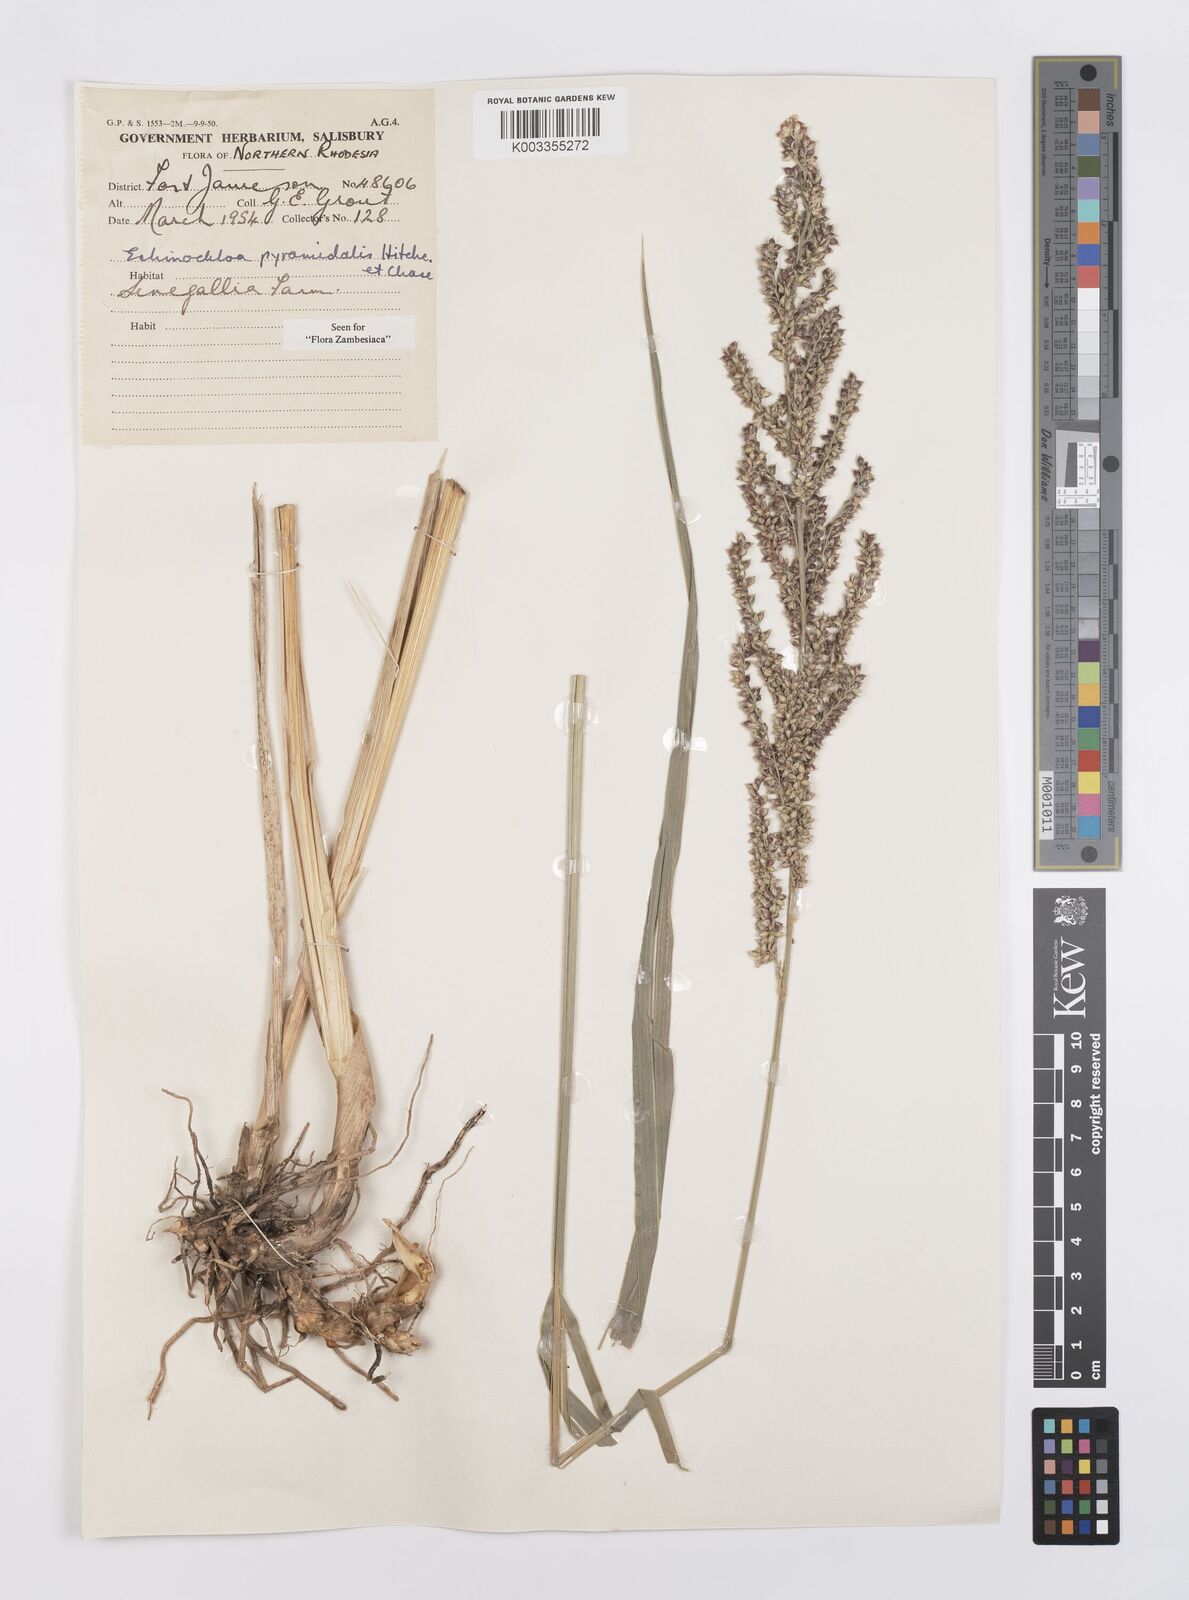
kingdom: Plantae
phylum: Tracheophyta
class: Liliopsida
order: Poales
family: Poaceae
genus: Echinochloa
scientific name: Echinochloa pyramidalis
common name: Antelope grass
